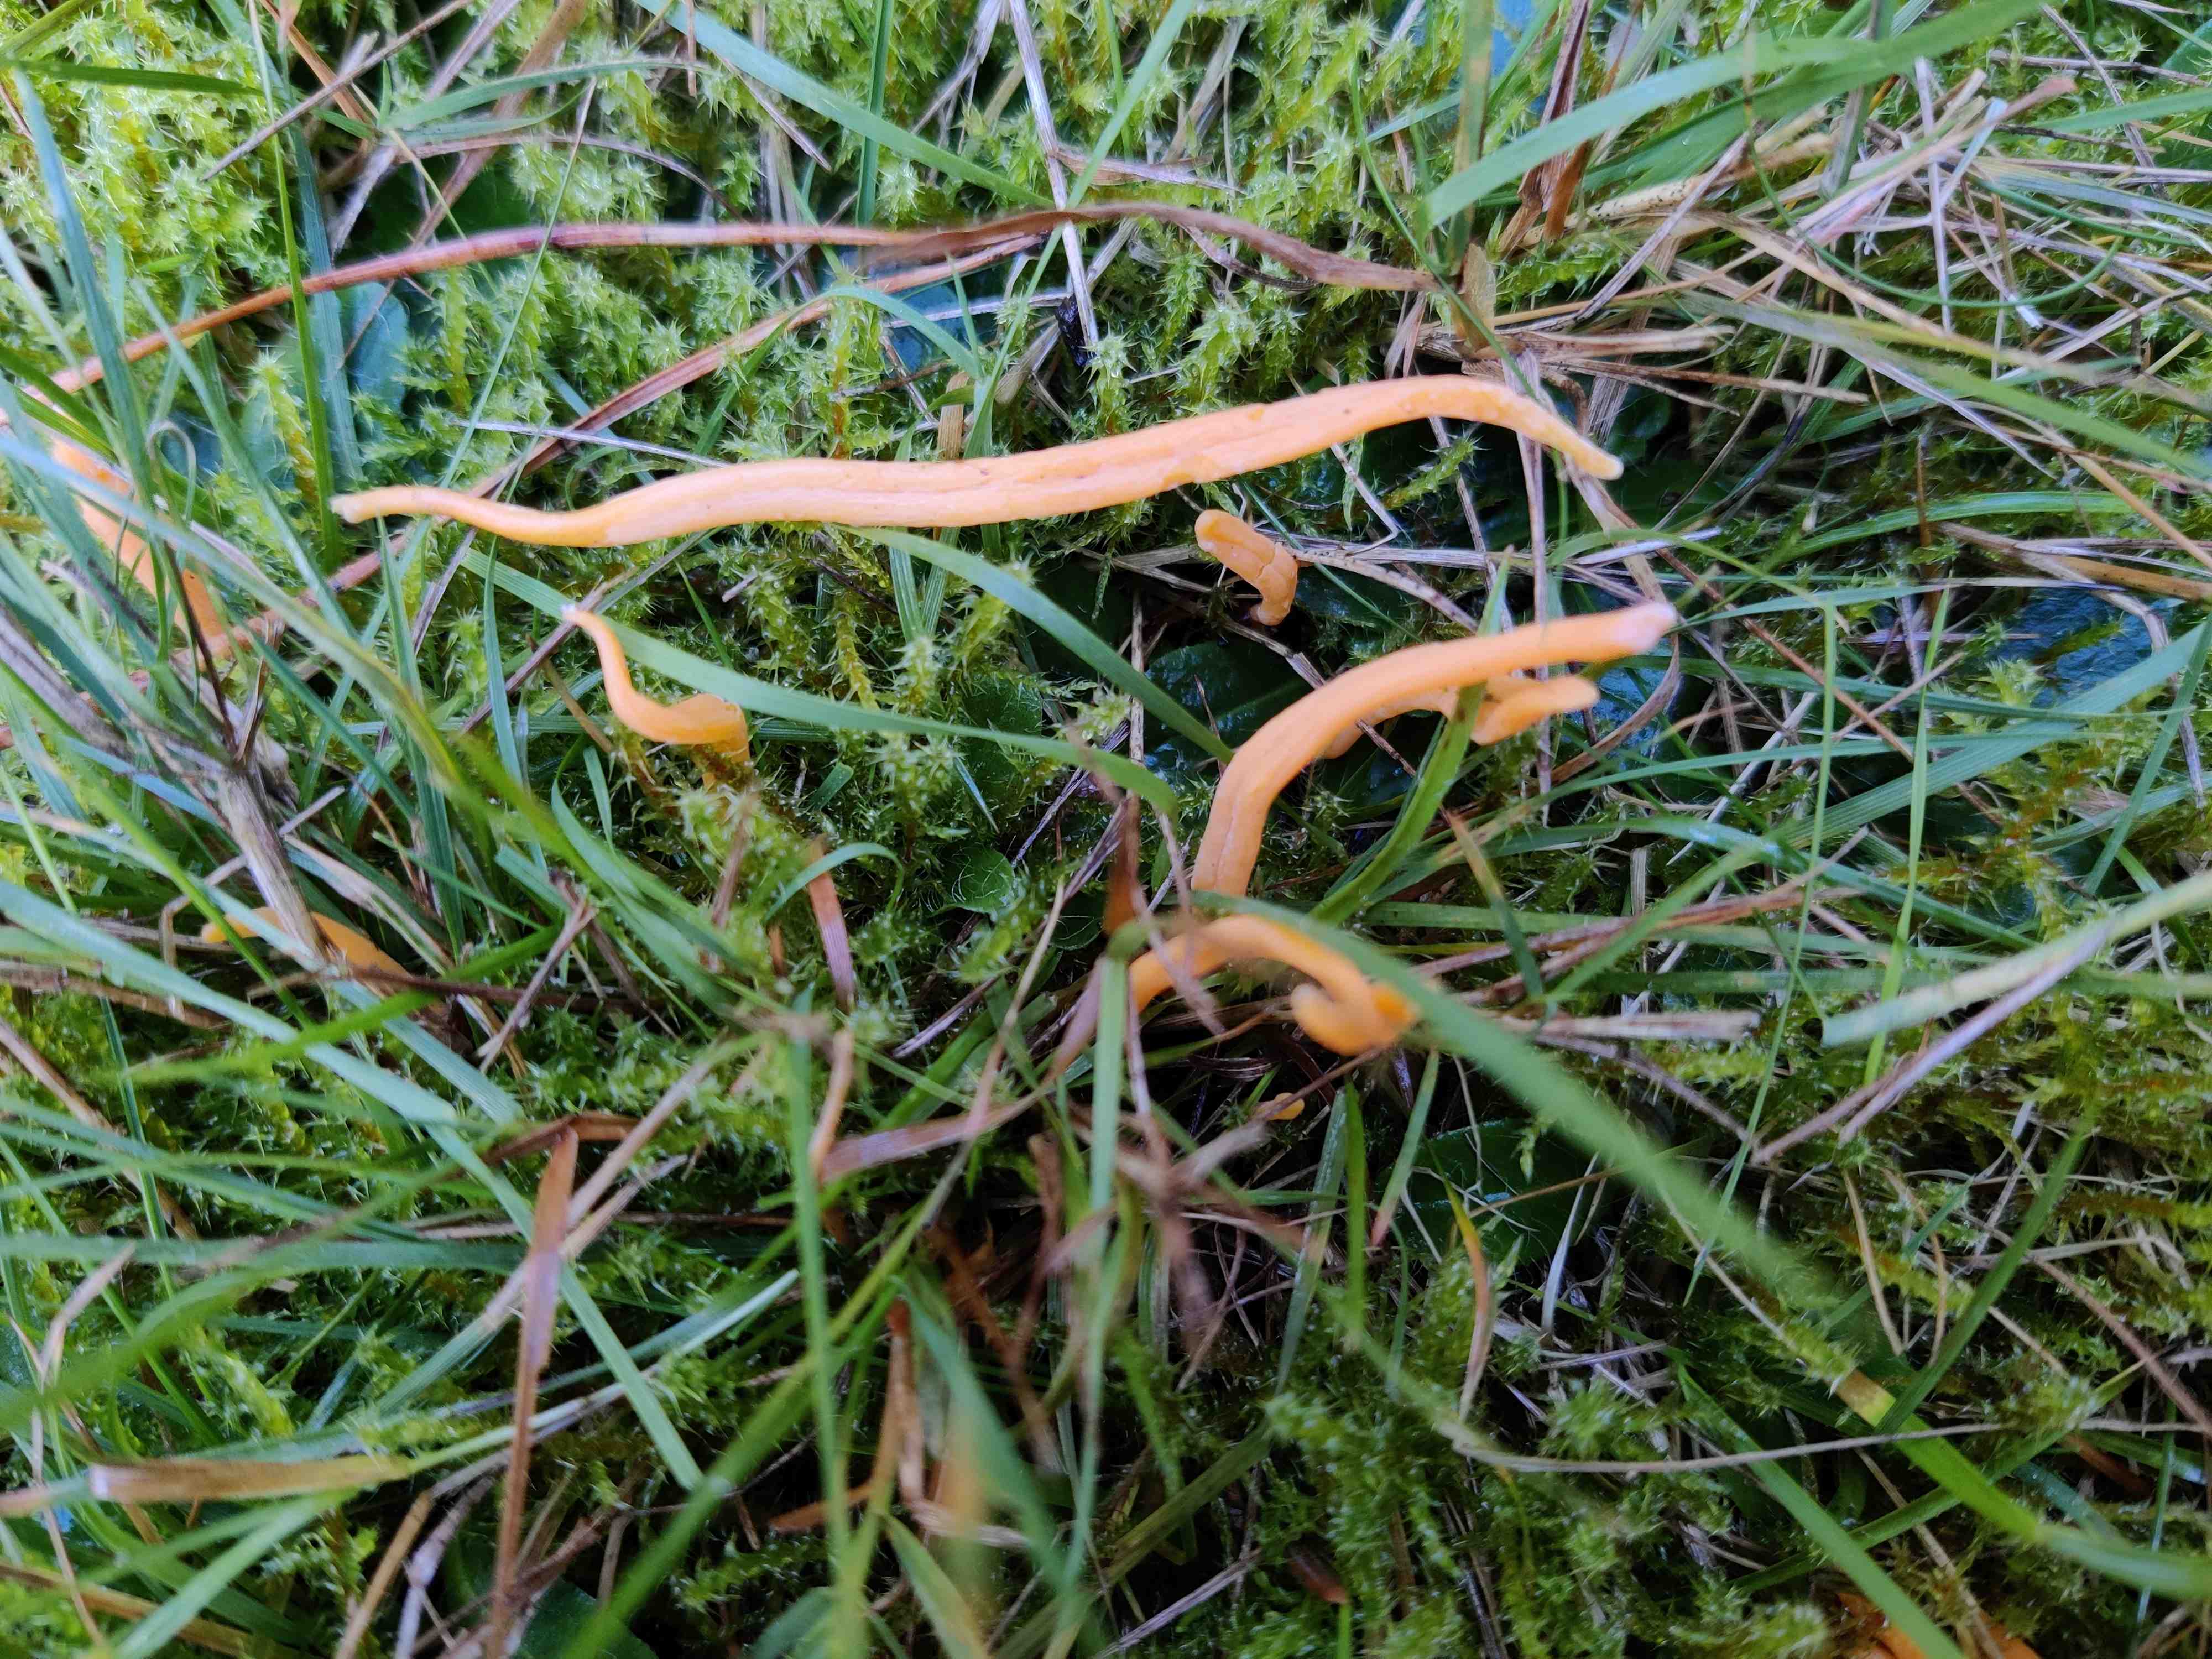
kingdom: Fungi
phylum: Basidiomycota
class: Agaricomycetes
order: Agaricales
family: Clavariaceae
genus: Clavulinopsis
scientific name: Clavulinopsis
